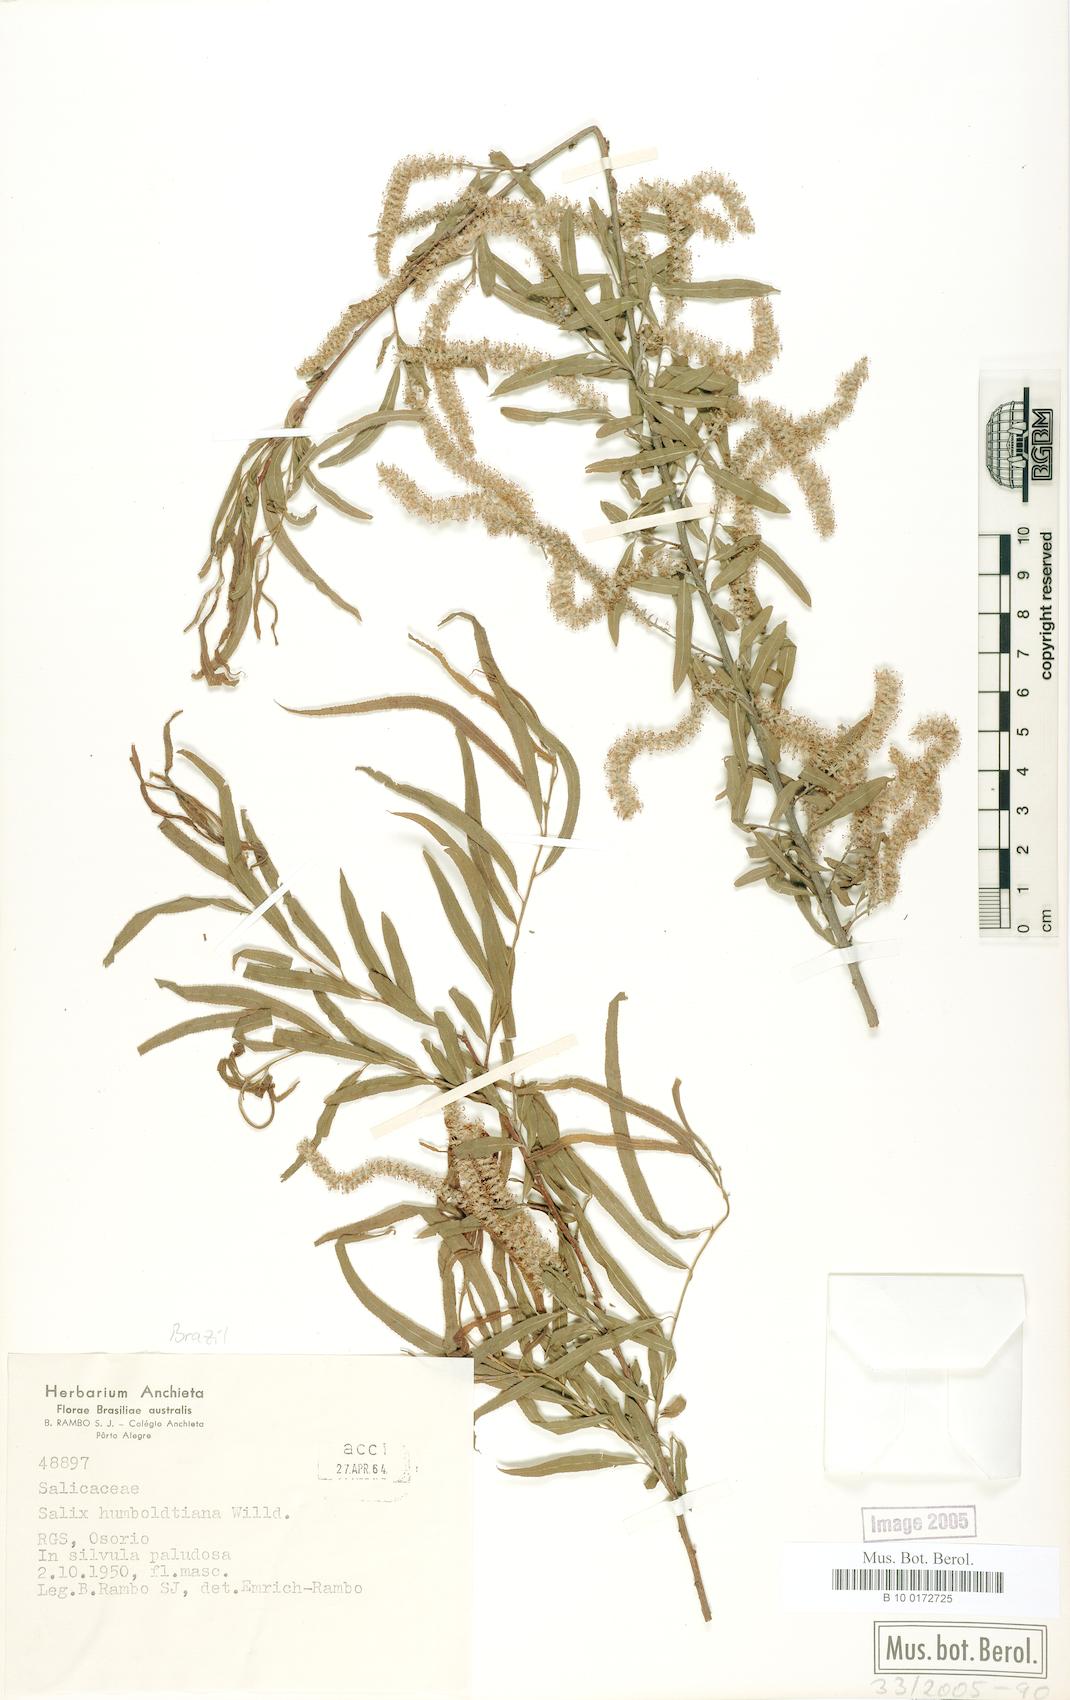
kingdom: Plantae
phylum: Tracheophyta
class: Magnoliopsida
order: Malpighiales
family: Salicaceae
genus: Salix
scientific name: Salix humboldtiana
